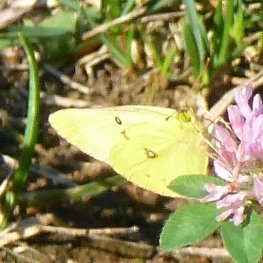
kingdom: Animalia
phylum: Arthropoda
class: Insecta
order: Lepidoptera
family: Pieridae
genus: Colias
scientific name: Colias philodice
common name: Clouded Sulphur
